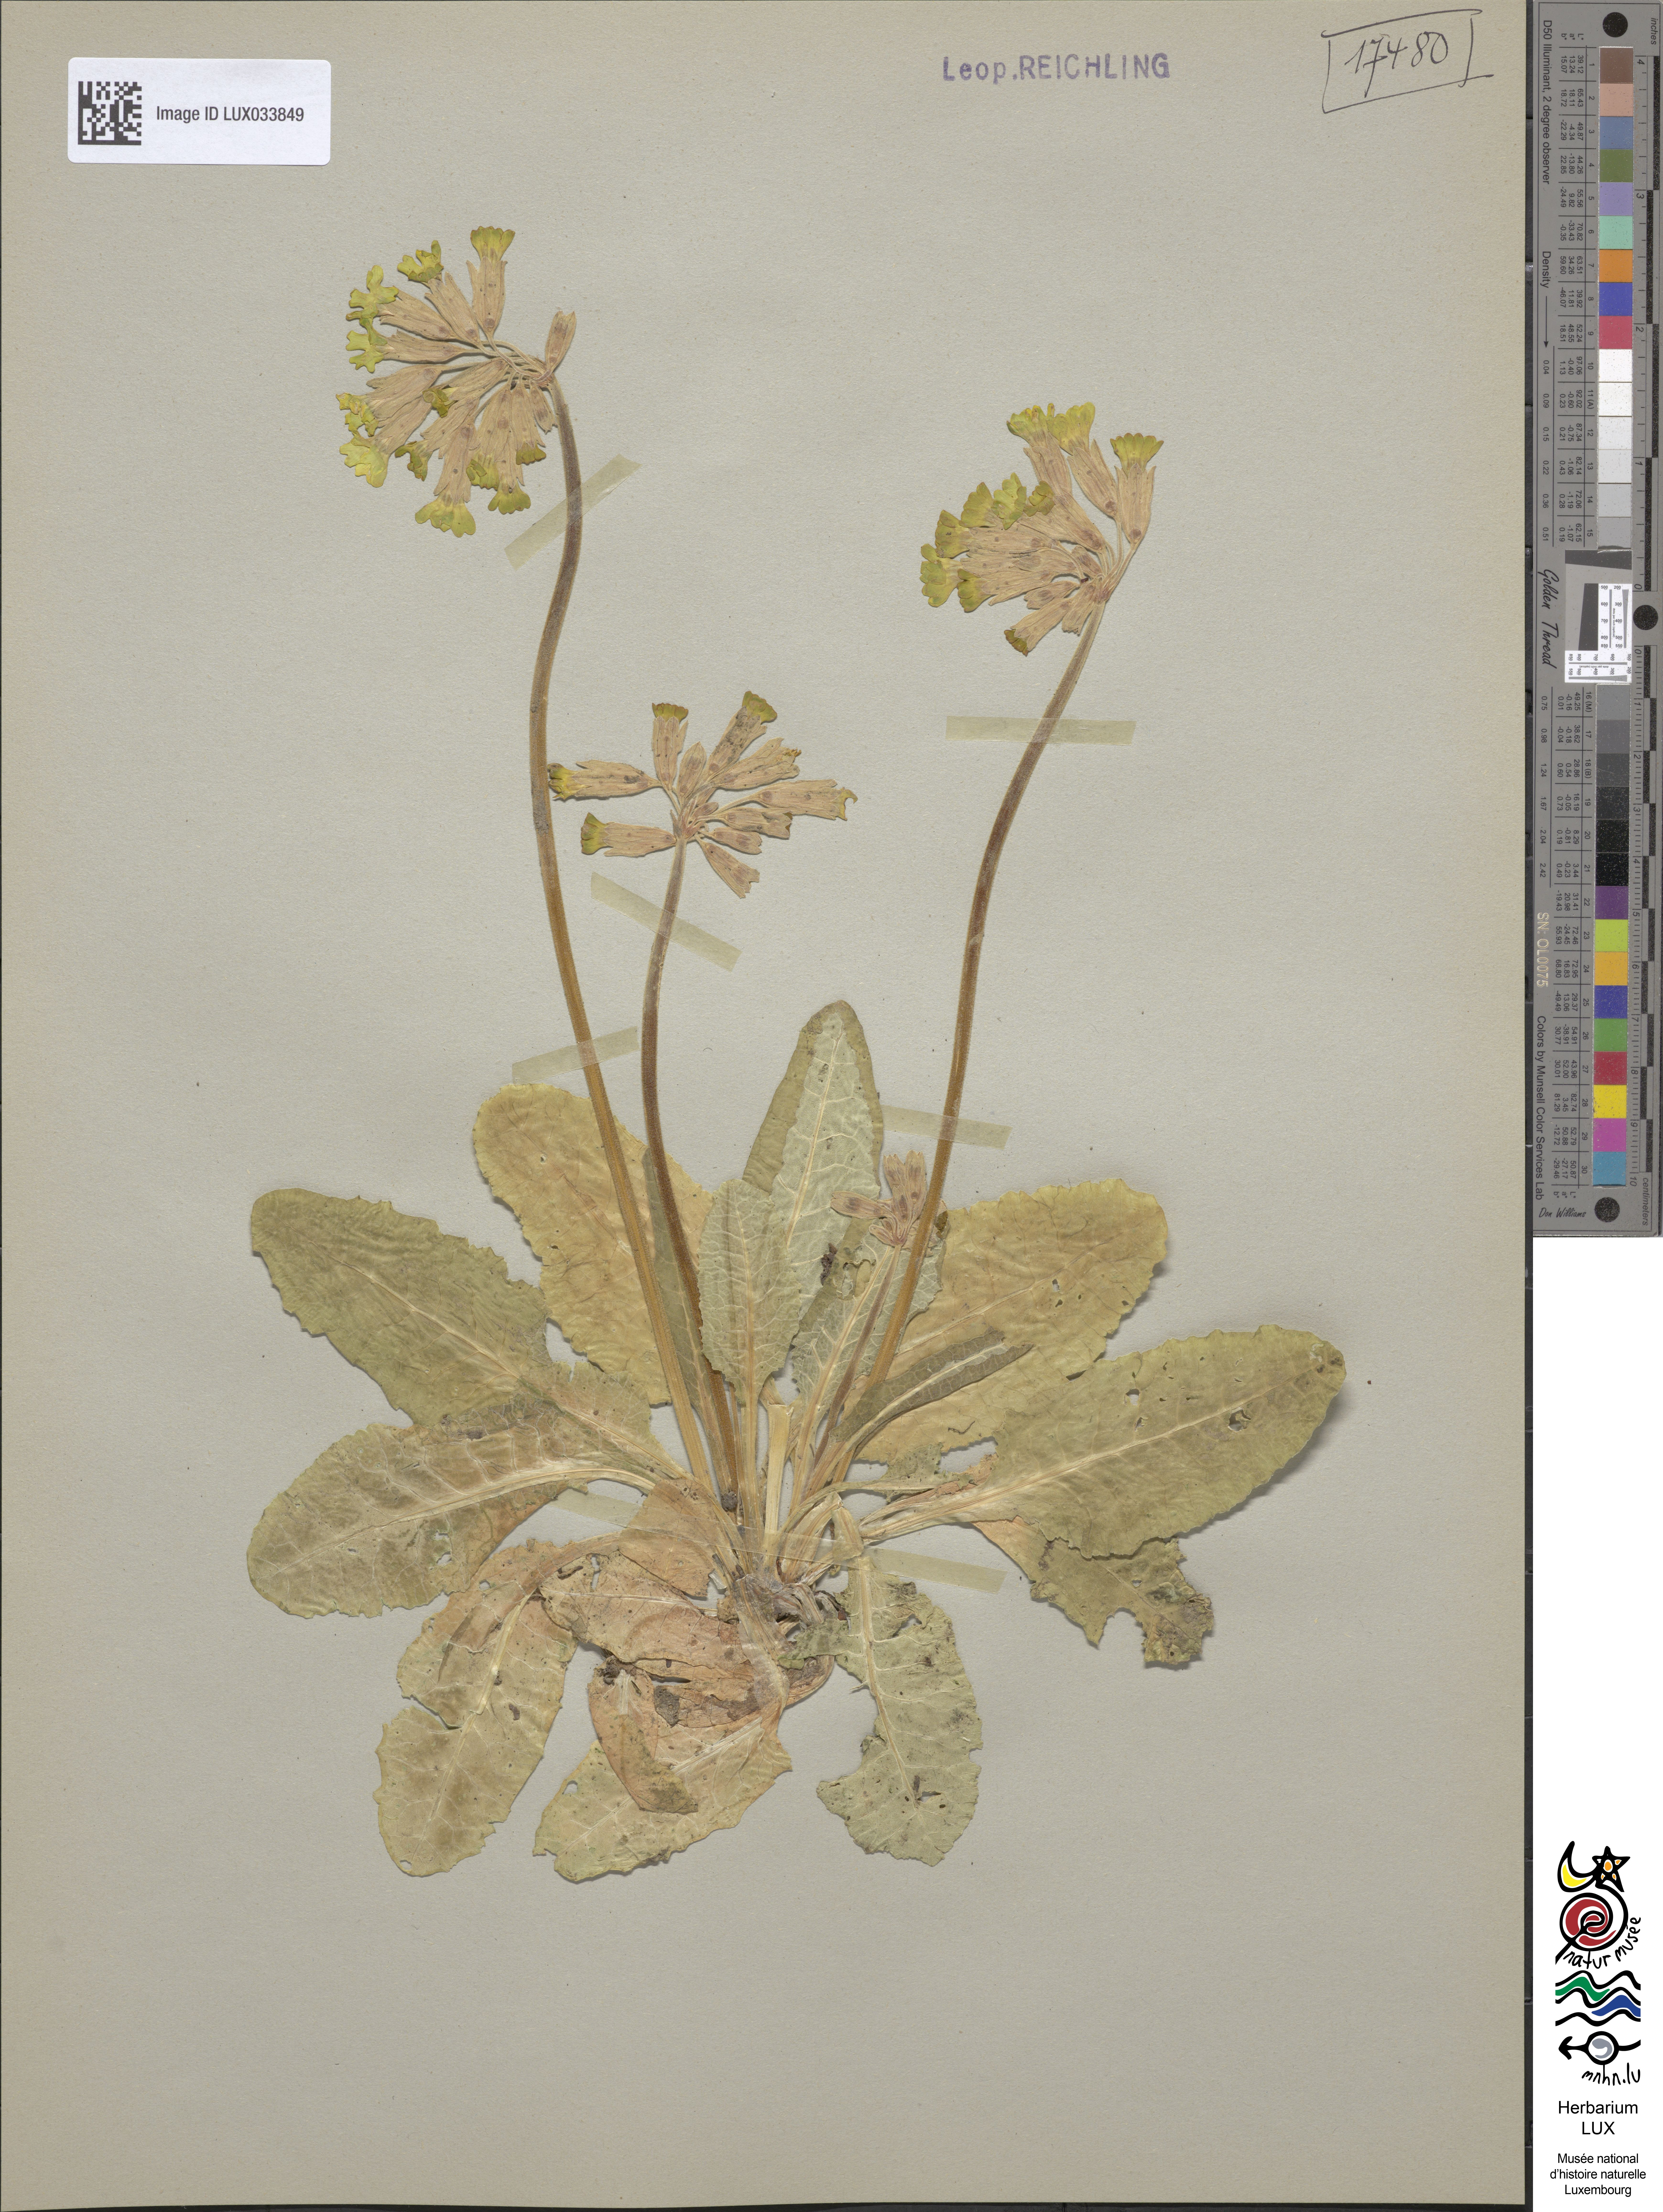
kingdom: Plantae
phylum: Tracheophyta
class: Magnoliopsida
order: Ericales
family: Primulaceae
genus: Primula
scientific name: Primula veris
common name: Cowslip
